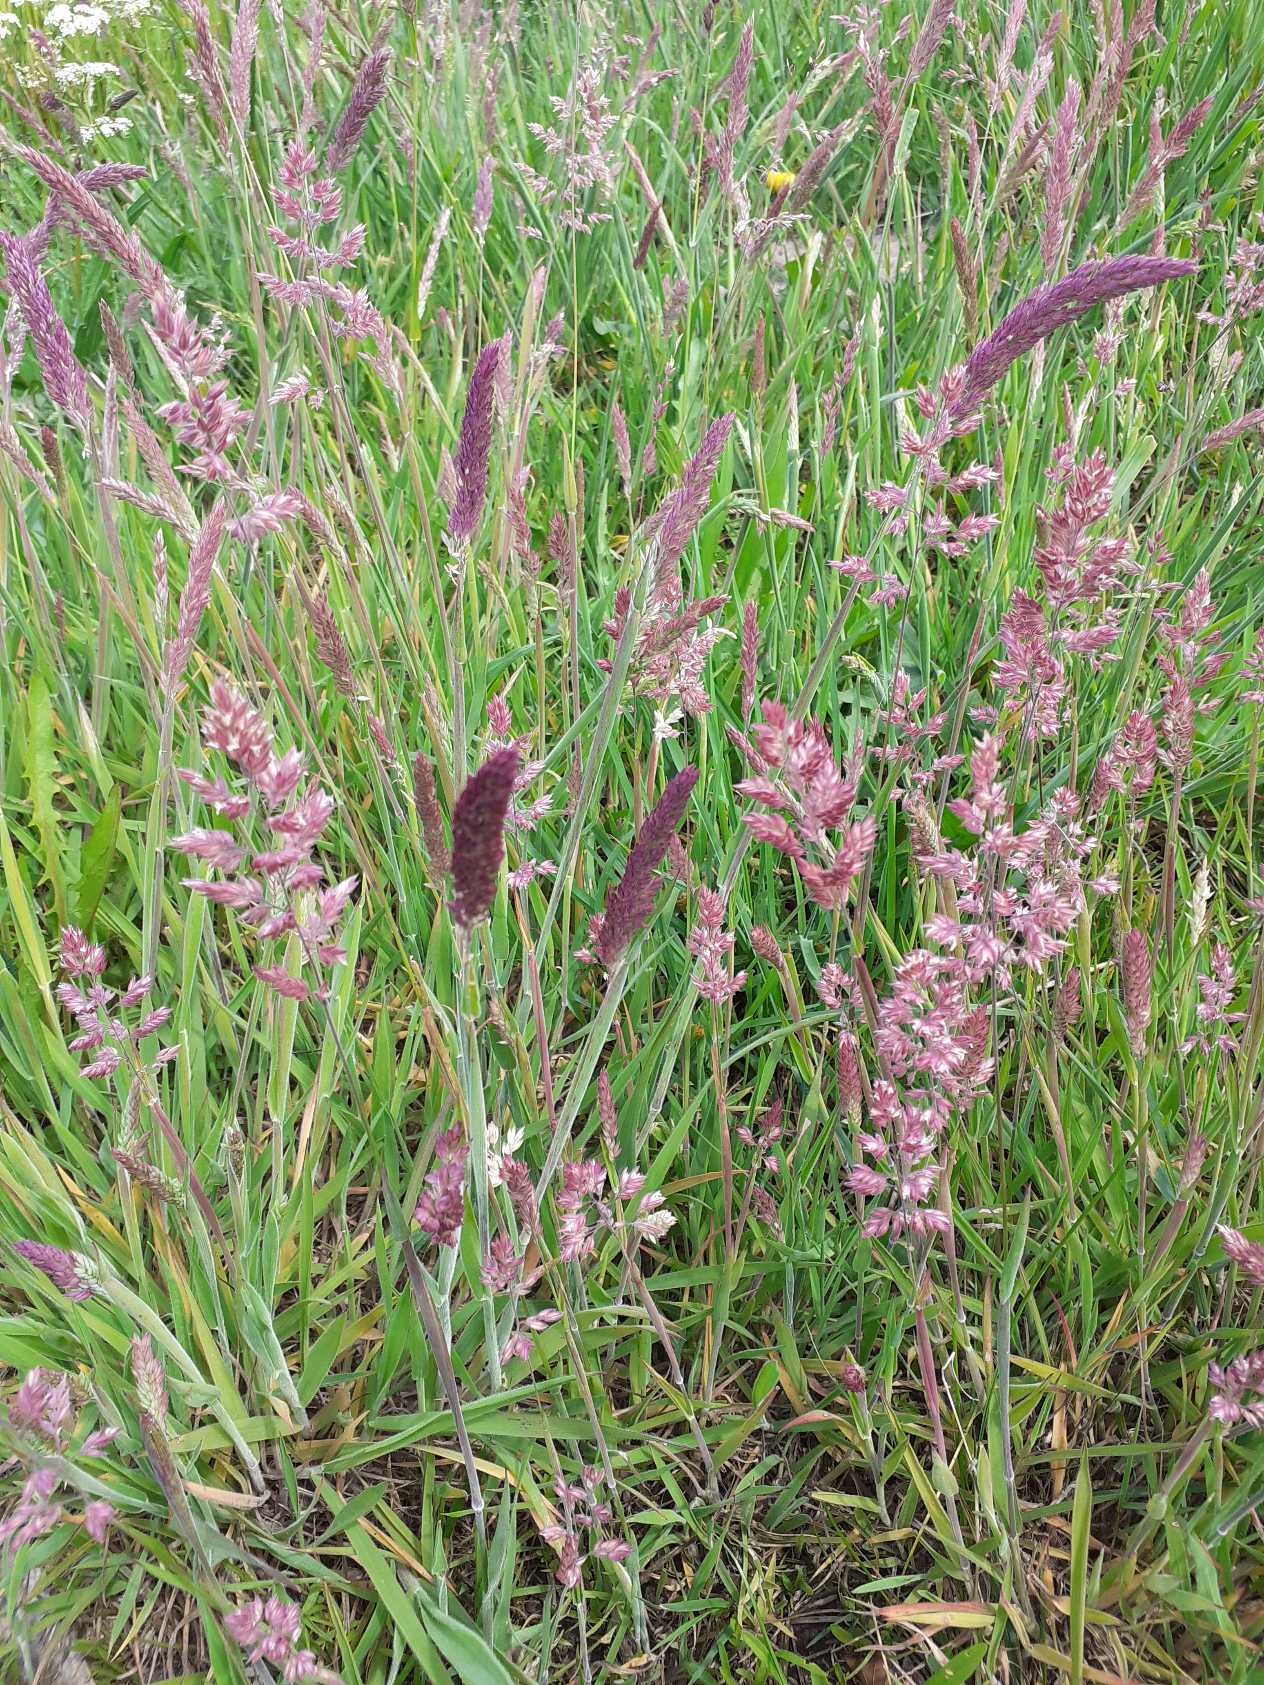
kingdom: Plantae
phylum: Tracheophyta
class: Liliopsida
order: Poales
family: Poaceae
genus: Holcus
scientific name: Holcus lanatus
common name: Fløjlsgræs
